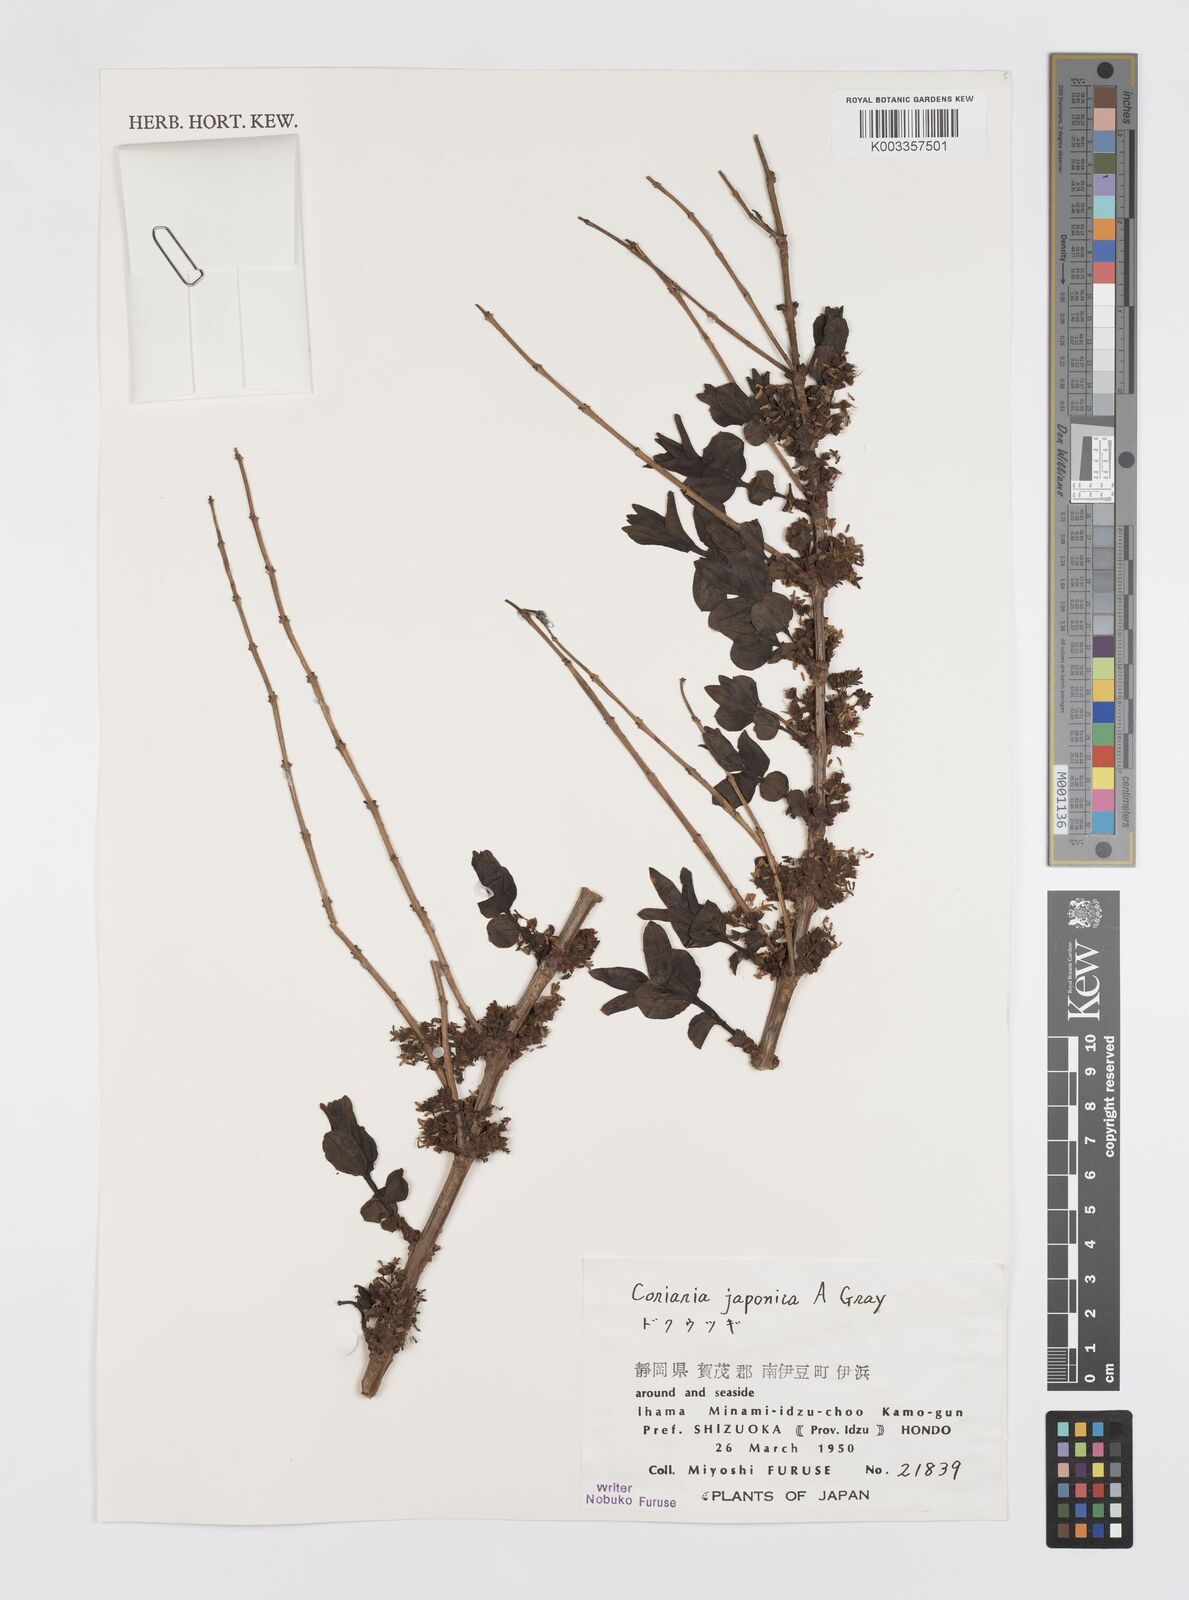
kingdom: Plantae
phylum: Tracheophyta
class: Magnoliopsida
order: Cucurbitales
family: Coriariaceae
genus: Coriaria
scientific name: Coriaria japonica
